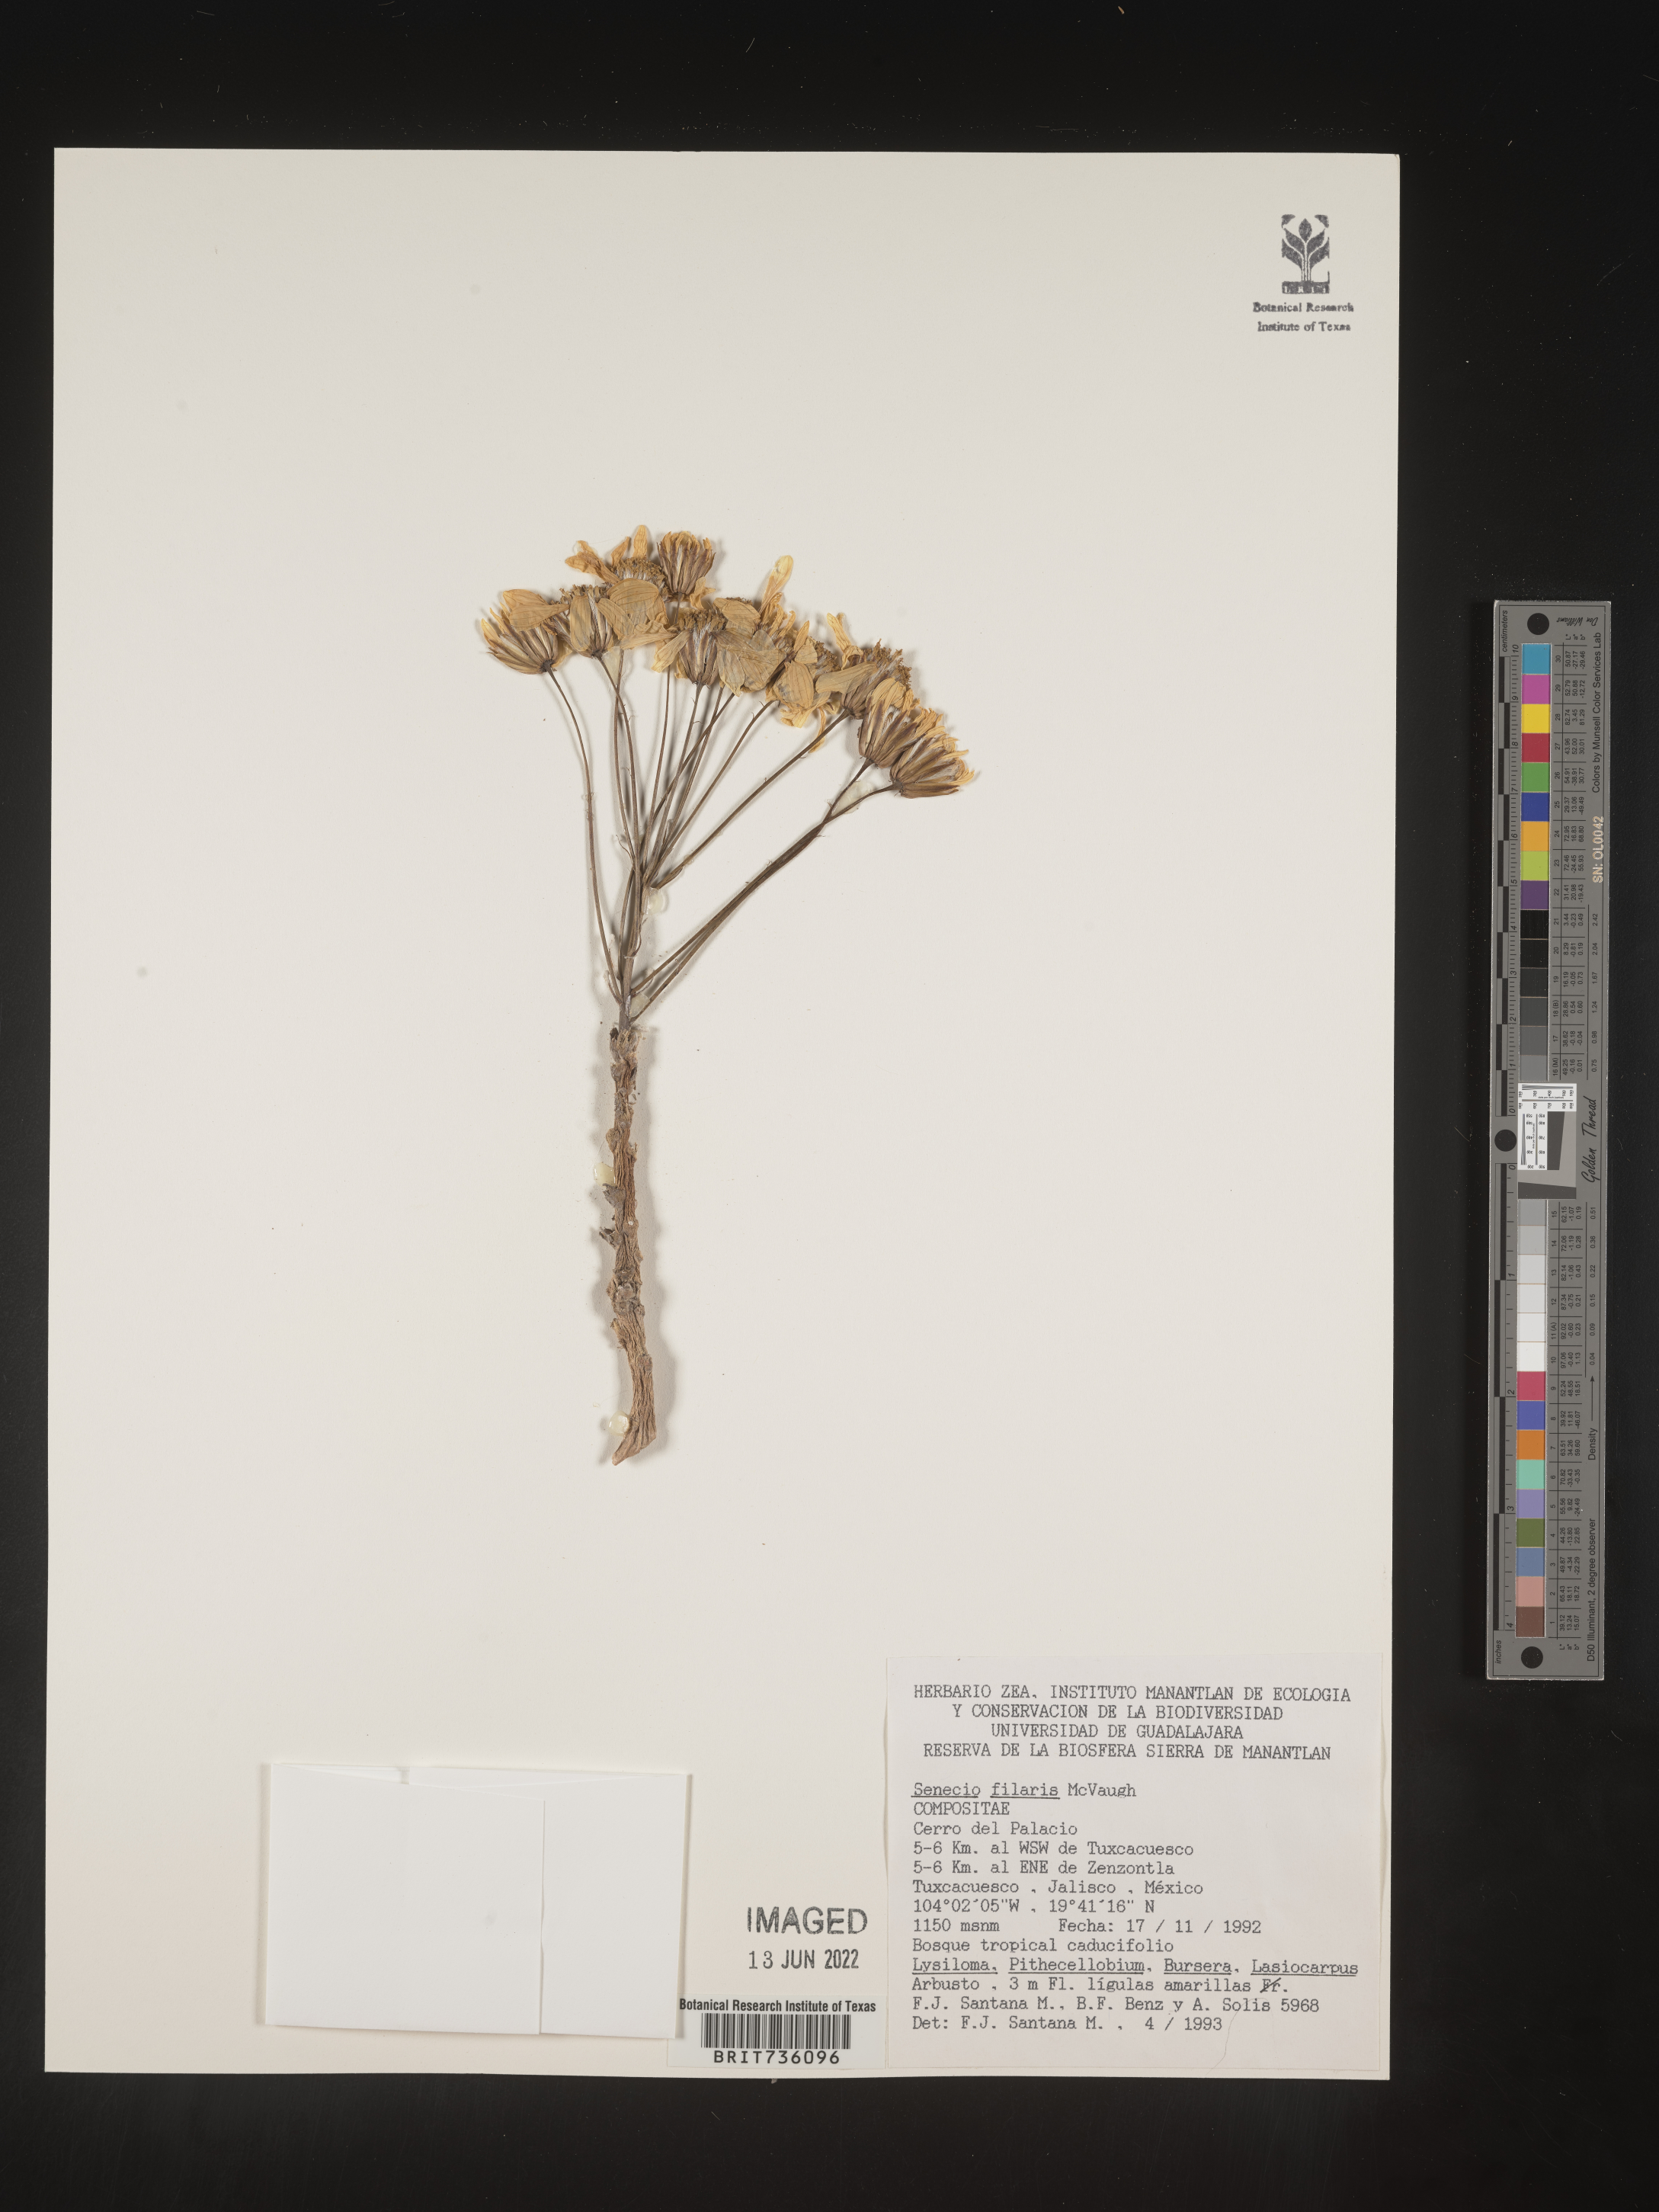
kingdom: Plantae
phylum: Tracheophyta
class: Magnoliopsida
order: Asterales
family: Asteraceae
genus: Pittocaulon
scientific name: Pittocaulon
